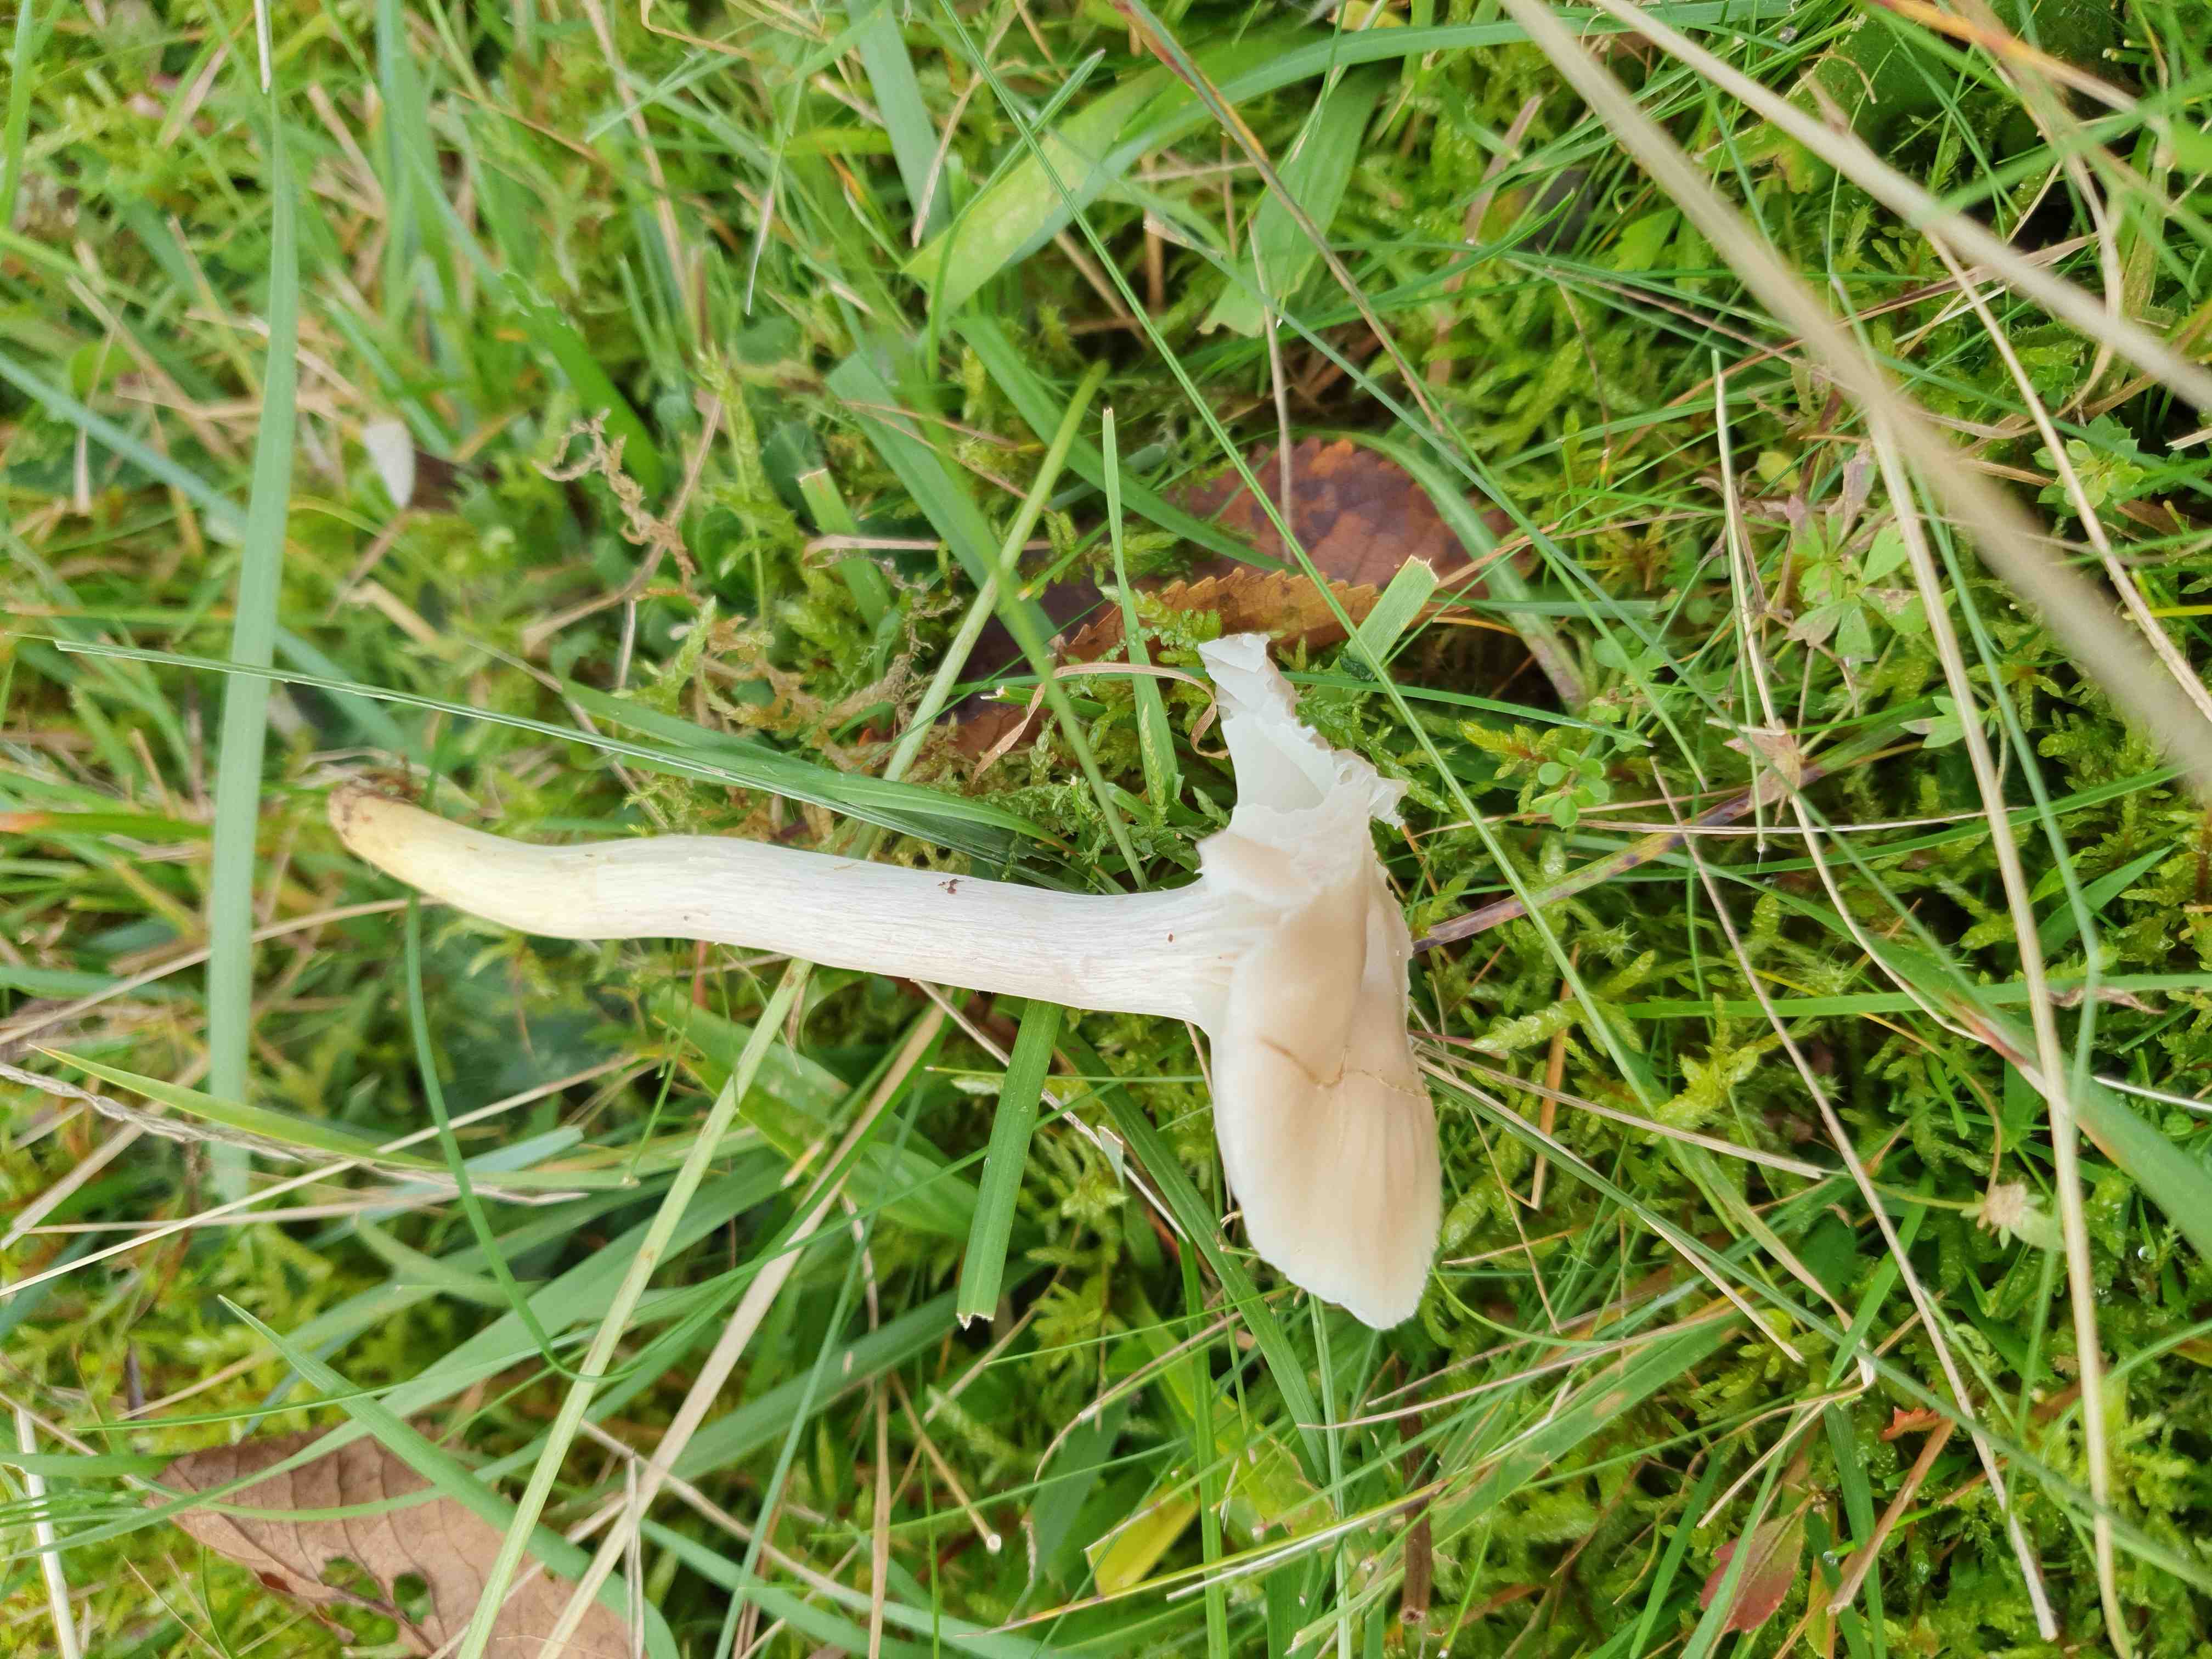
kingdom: Fungi
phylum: Basidiomycota
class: Agaricomycetes
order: Agaricales
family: Hygrophoraceae
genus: Cuphophyllus
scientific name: Cuphophyllus flavipes
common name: gulfodet vokshat
